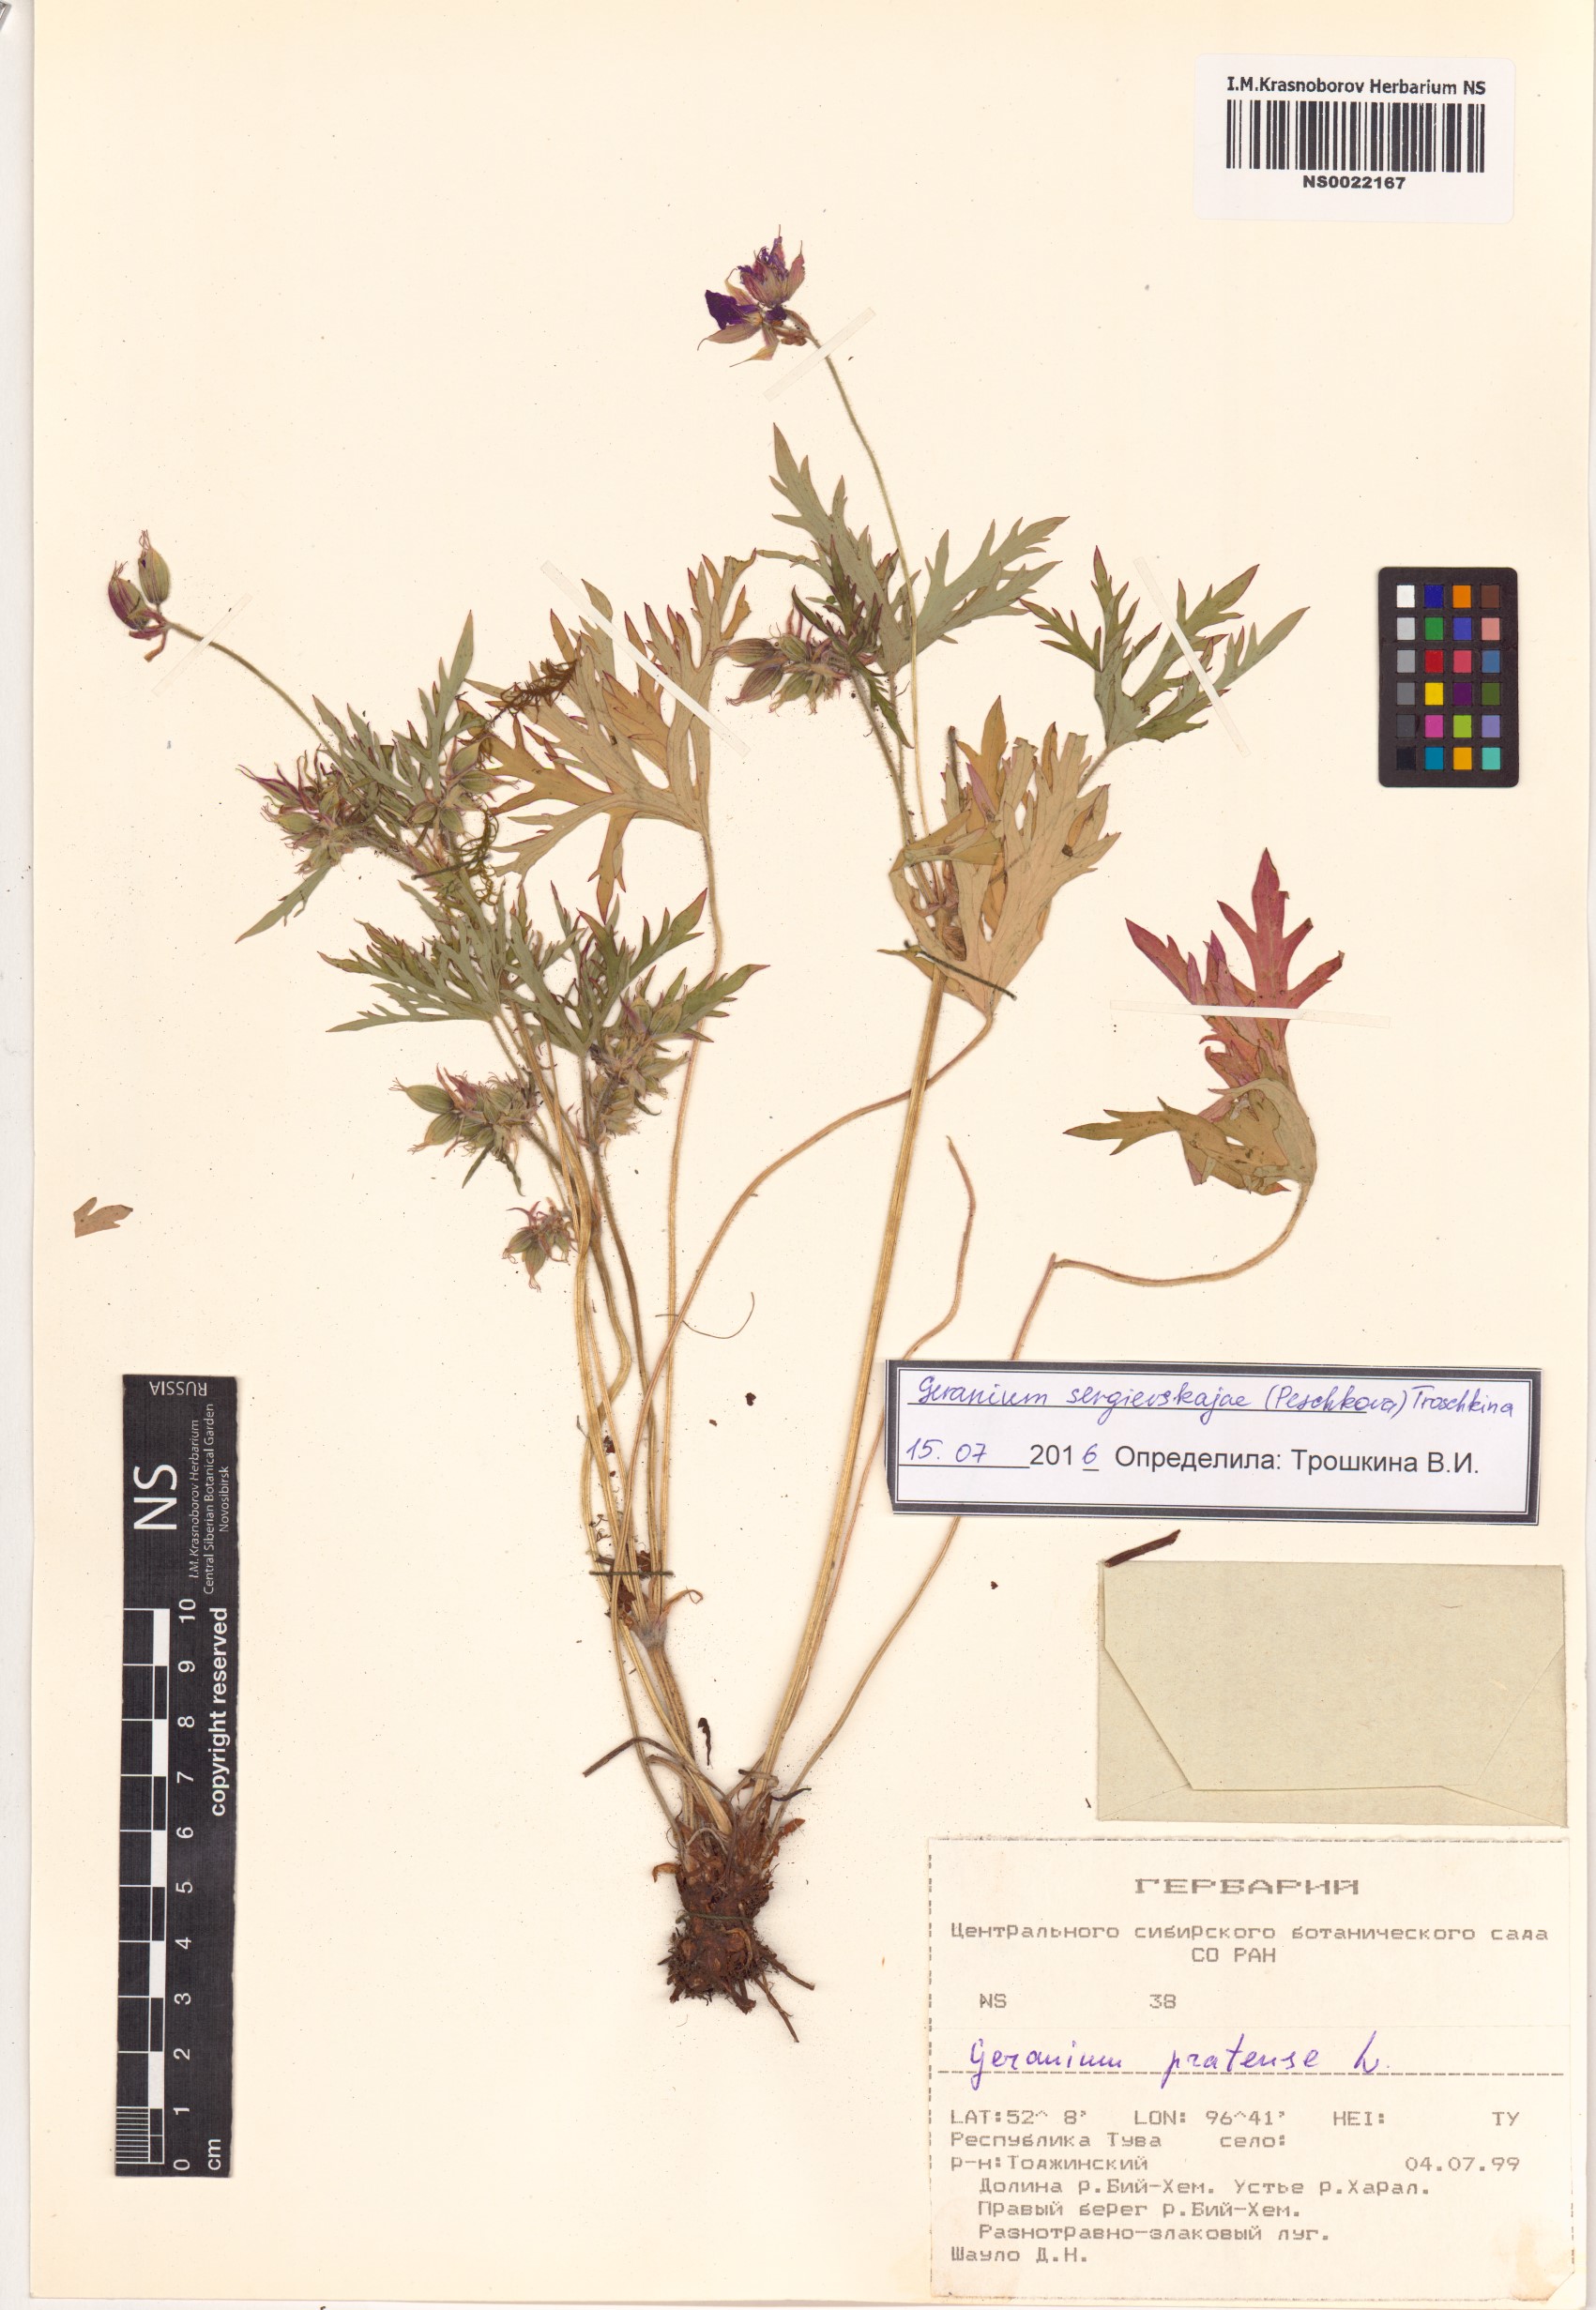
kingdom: Plantae
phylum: Tracheophyta
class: Magnoliopsida
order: Geraniales
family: Geraniaceae
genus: Geranium
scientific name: Geranium pratense
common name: Meadow crane's-bill
